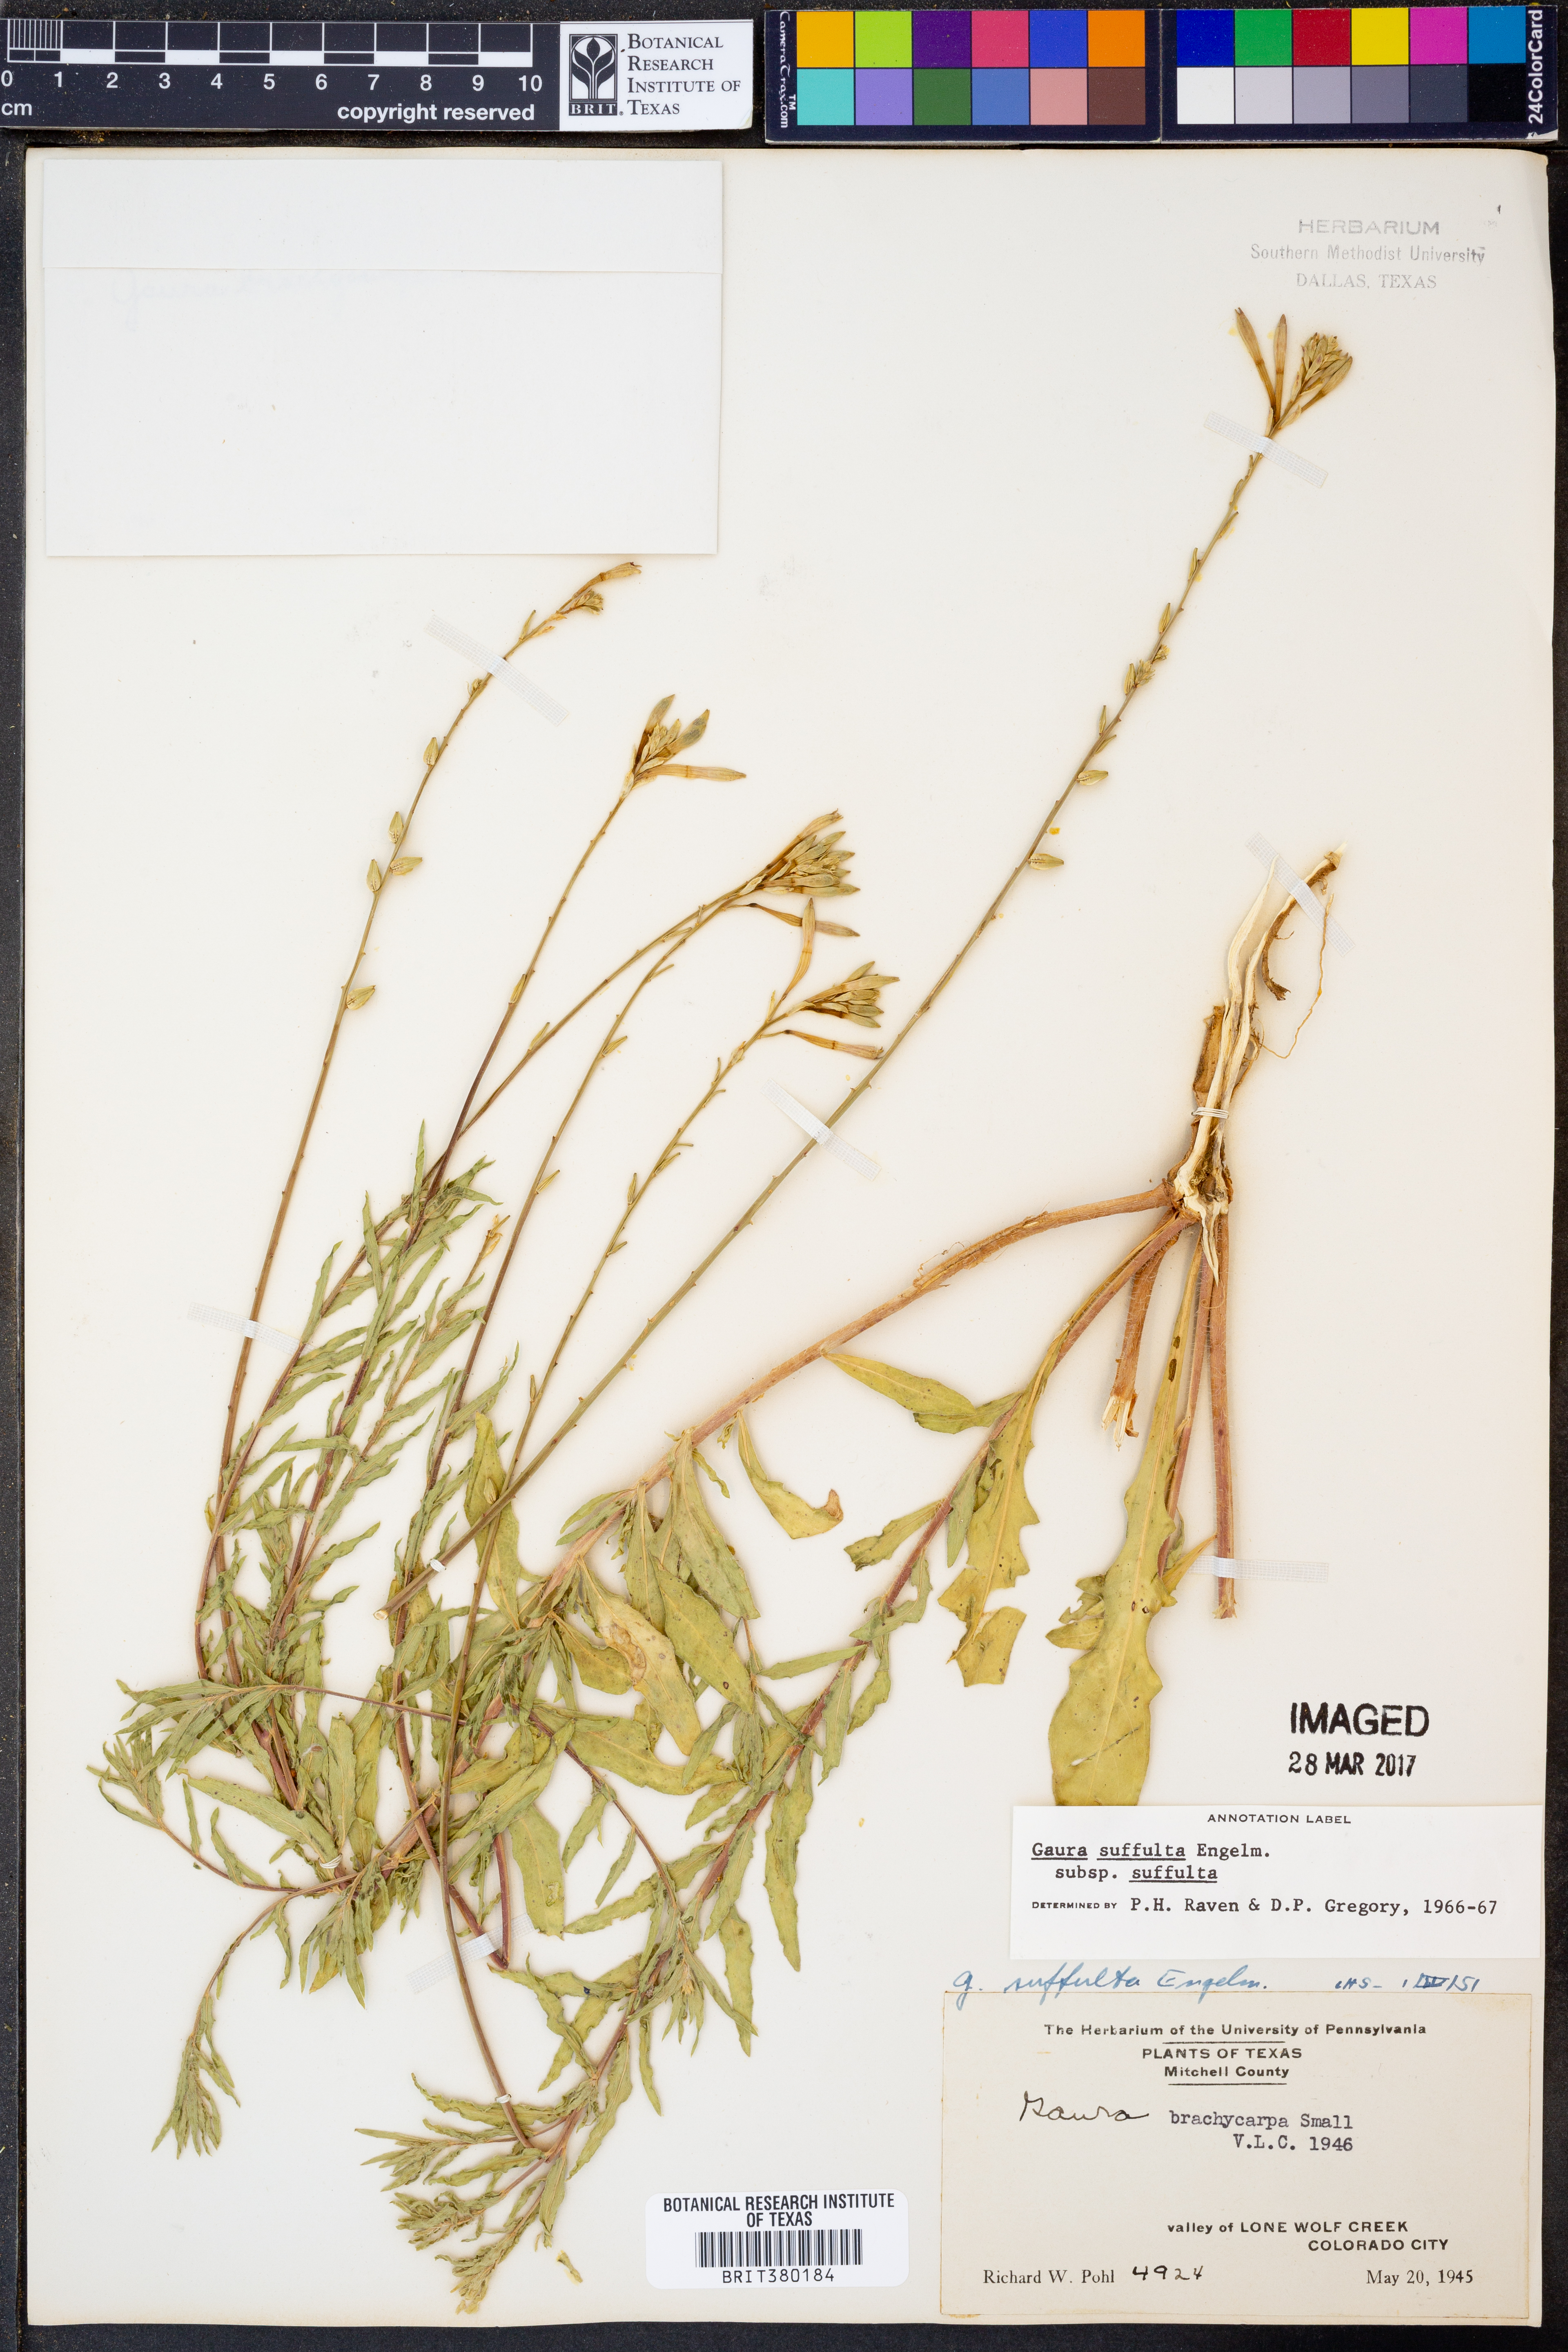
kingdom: Plantae
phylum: Tracheophyta
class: Magnoliopsida
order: Myrtales
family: Onagraceae
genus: Oenothera
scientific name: Oenothera suffulta
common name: Kisses
